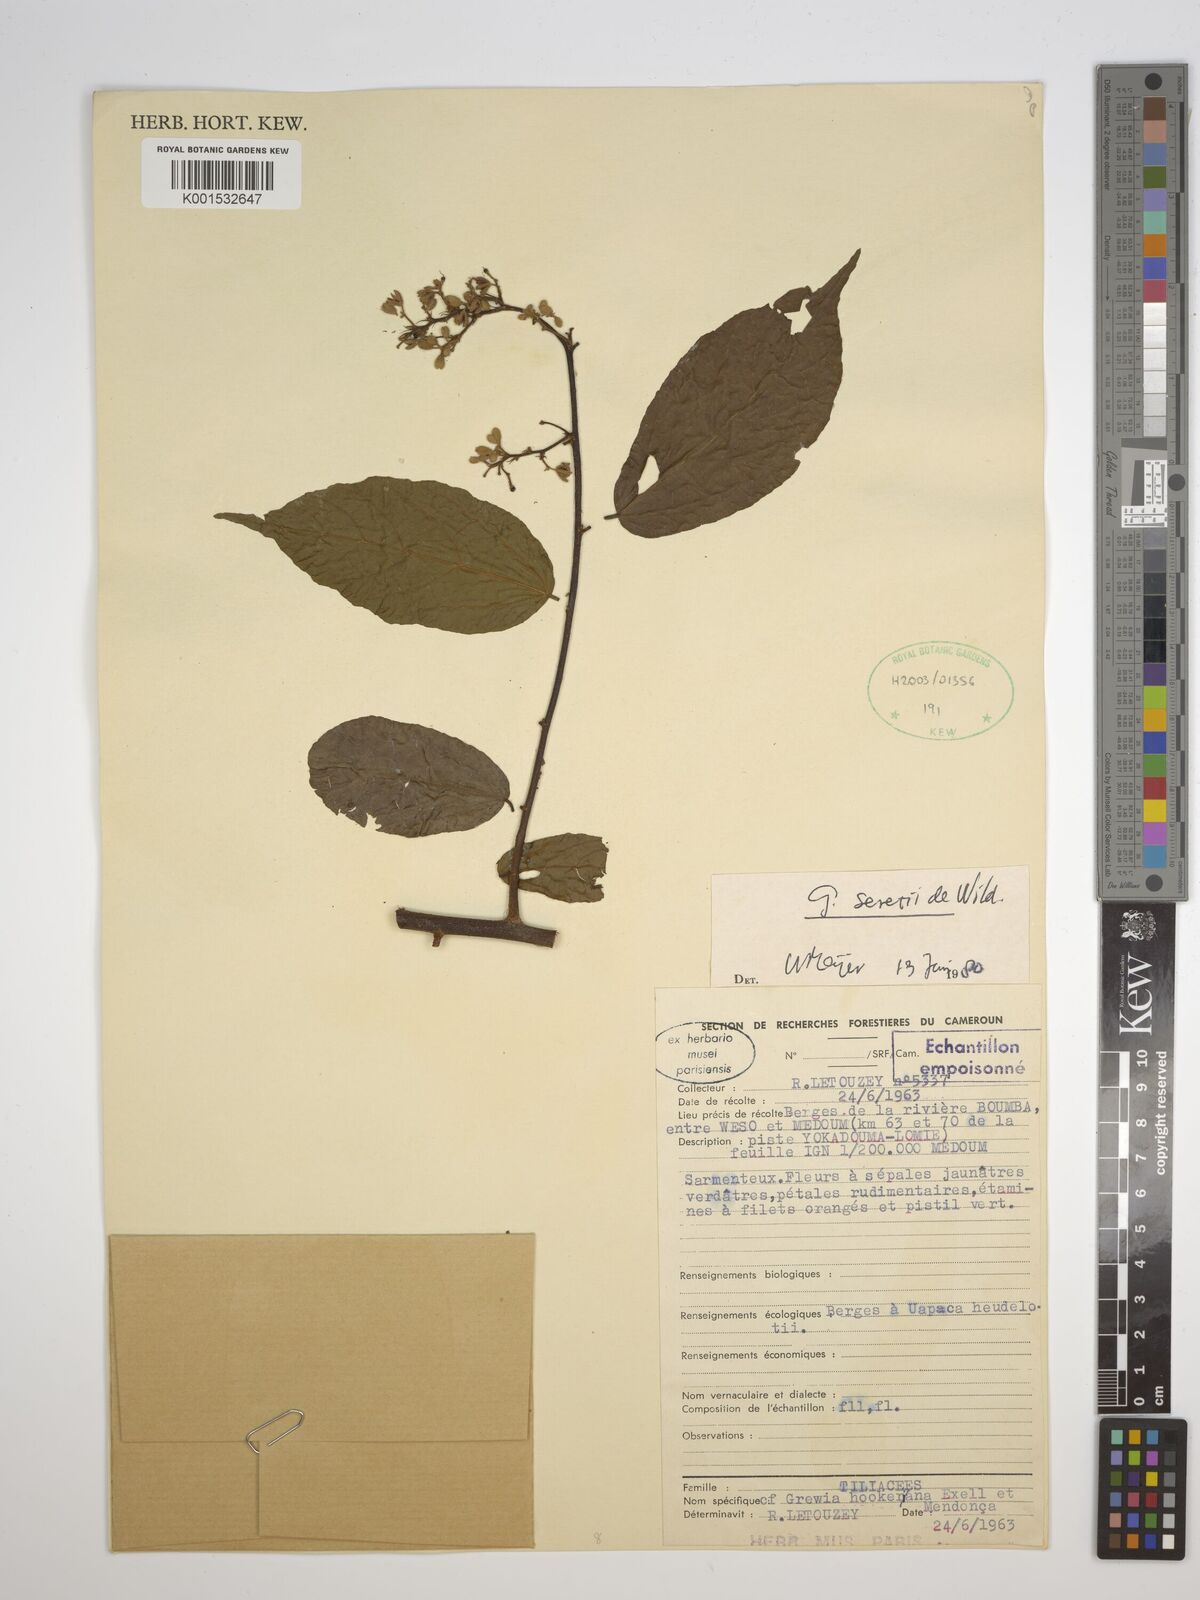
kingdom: Plantae
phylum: Tracheophyta
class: Magnoliopsida
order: Malvales
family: Malvaceae
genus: Microcos
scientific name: Microcos seretii
